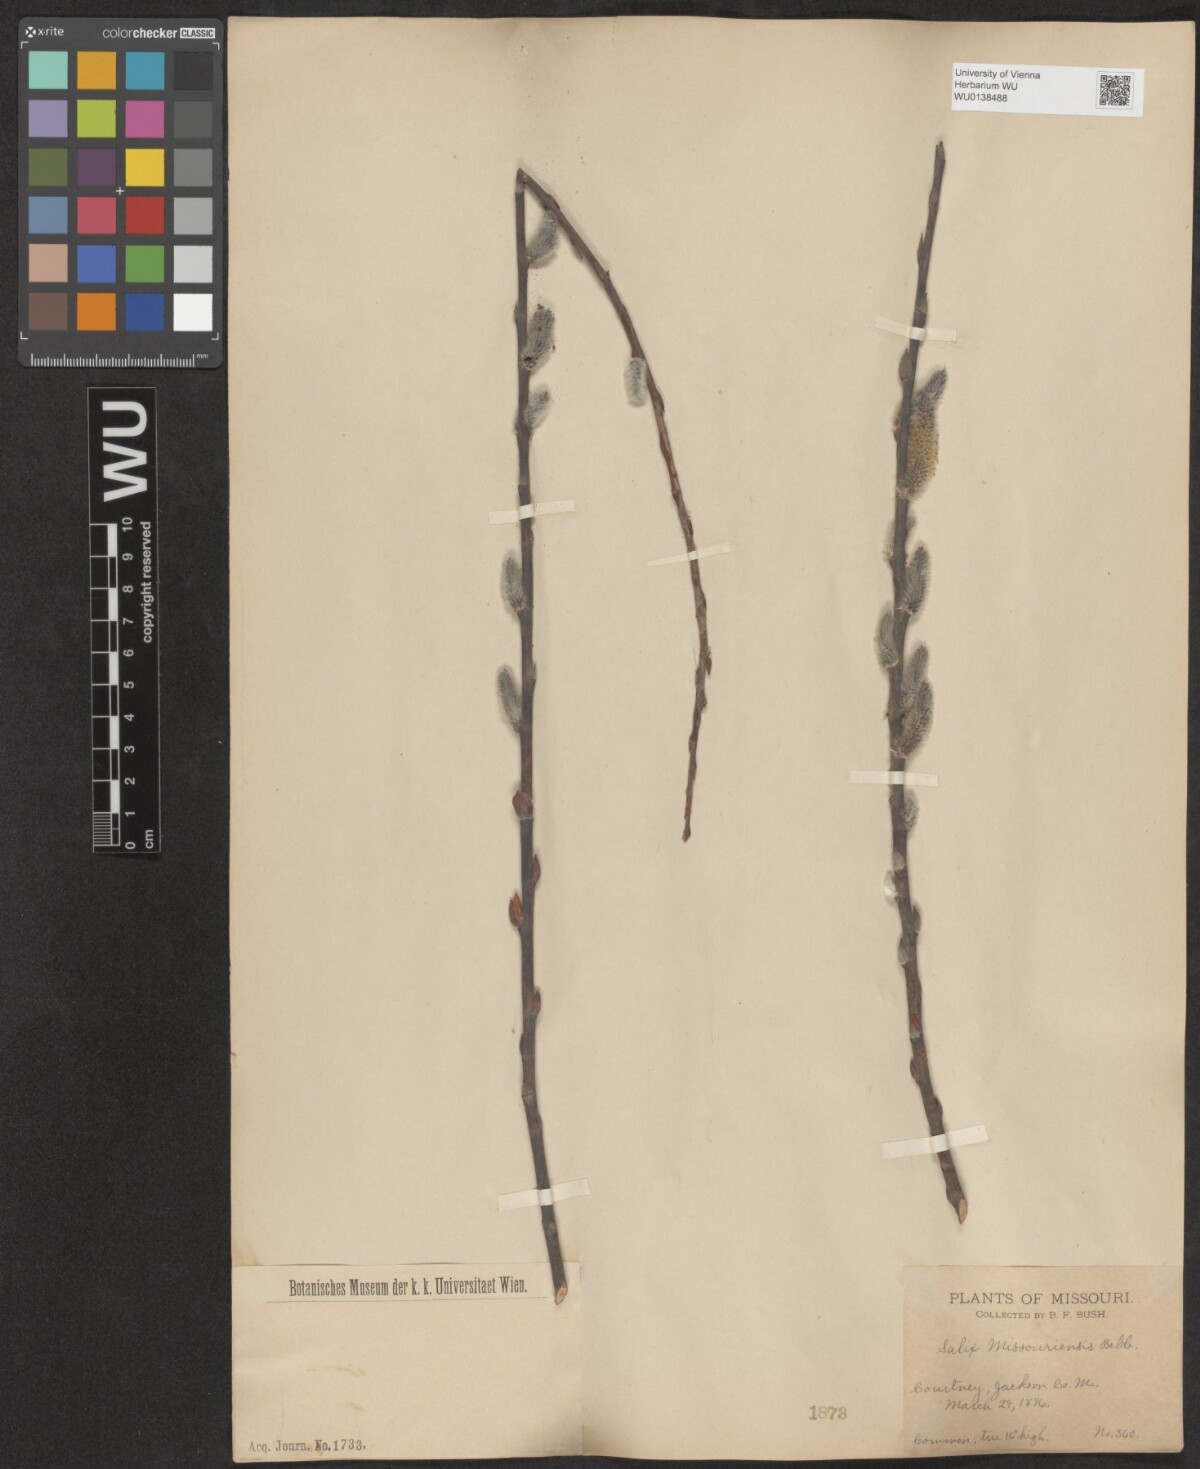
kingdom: Plantae
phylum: Tracheophyta
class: Magnoliopsida
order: Malpighiales
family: Salicaceae
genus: Salix
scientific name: Salix eriocephala
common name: Heart-leaved willow
